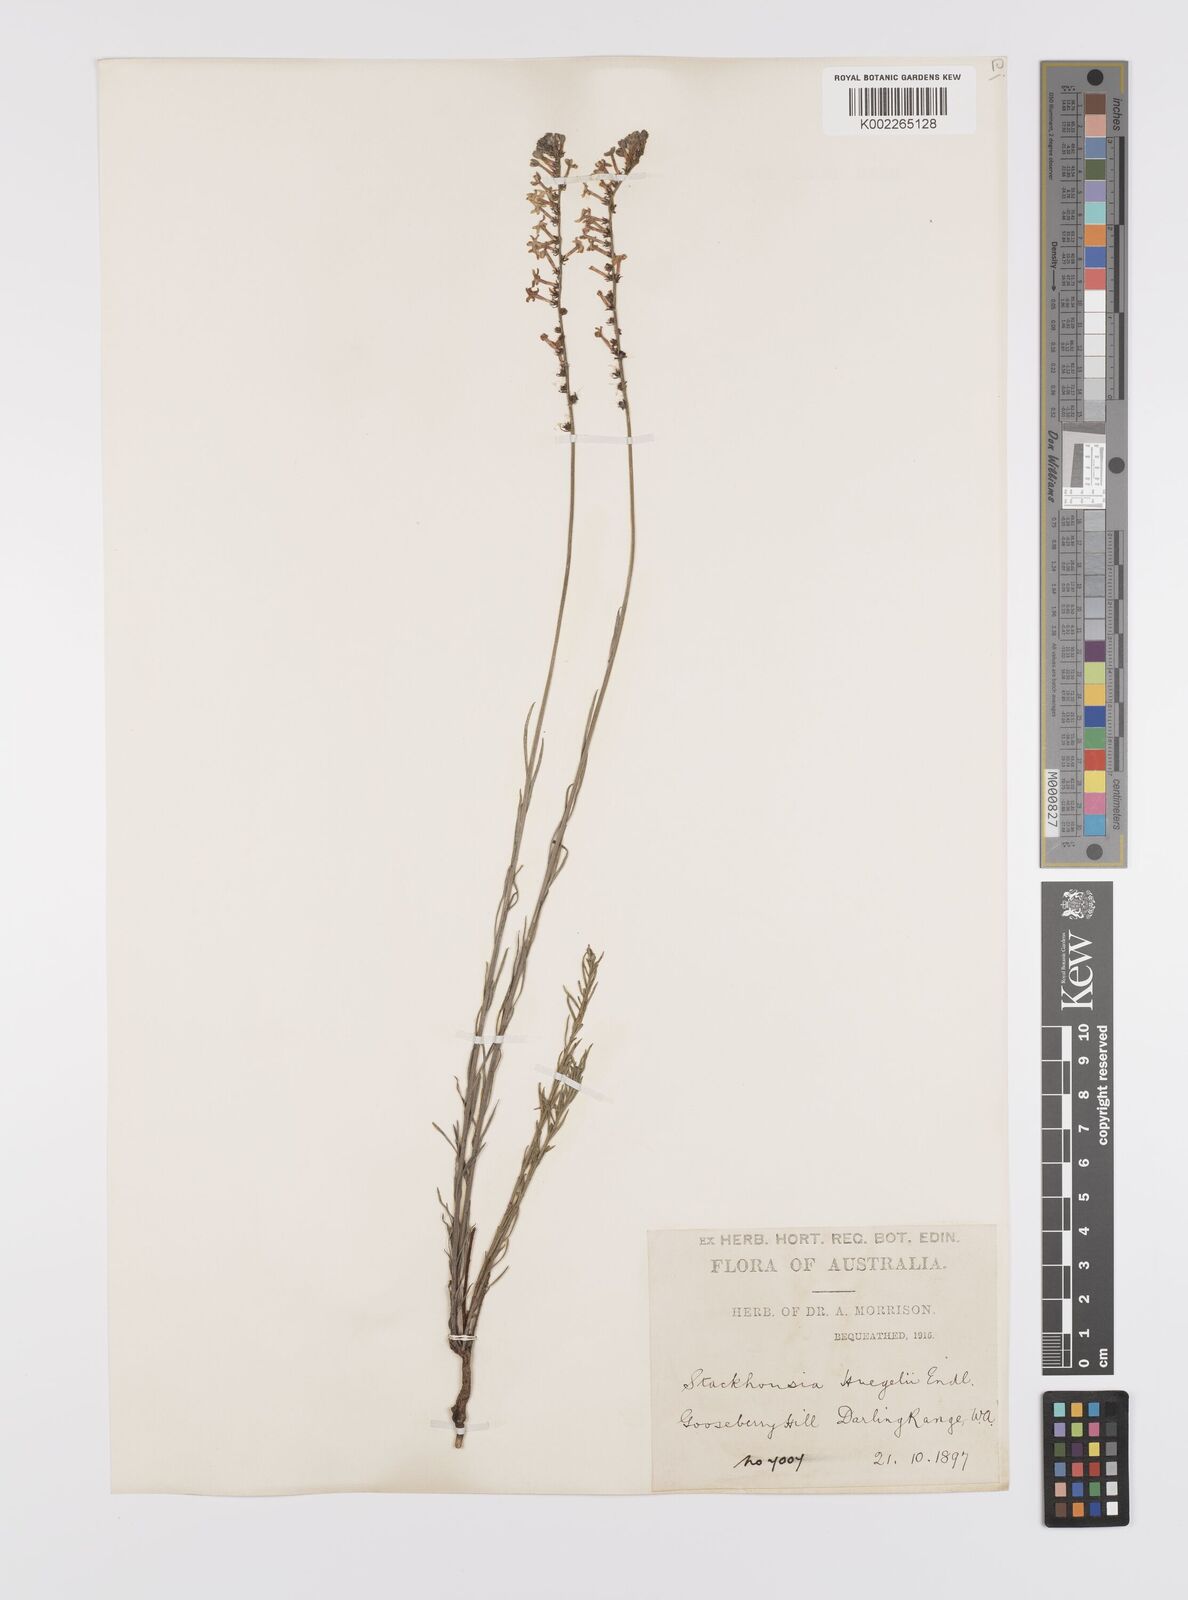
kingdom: Plantae
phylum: Tracheophyta
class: Magnoliopsida
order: Celastrales
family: Celastraceae
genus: Stackhousia
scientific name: Stackhousia monogyna
